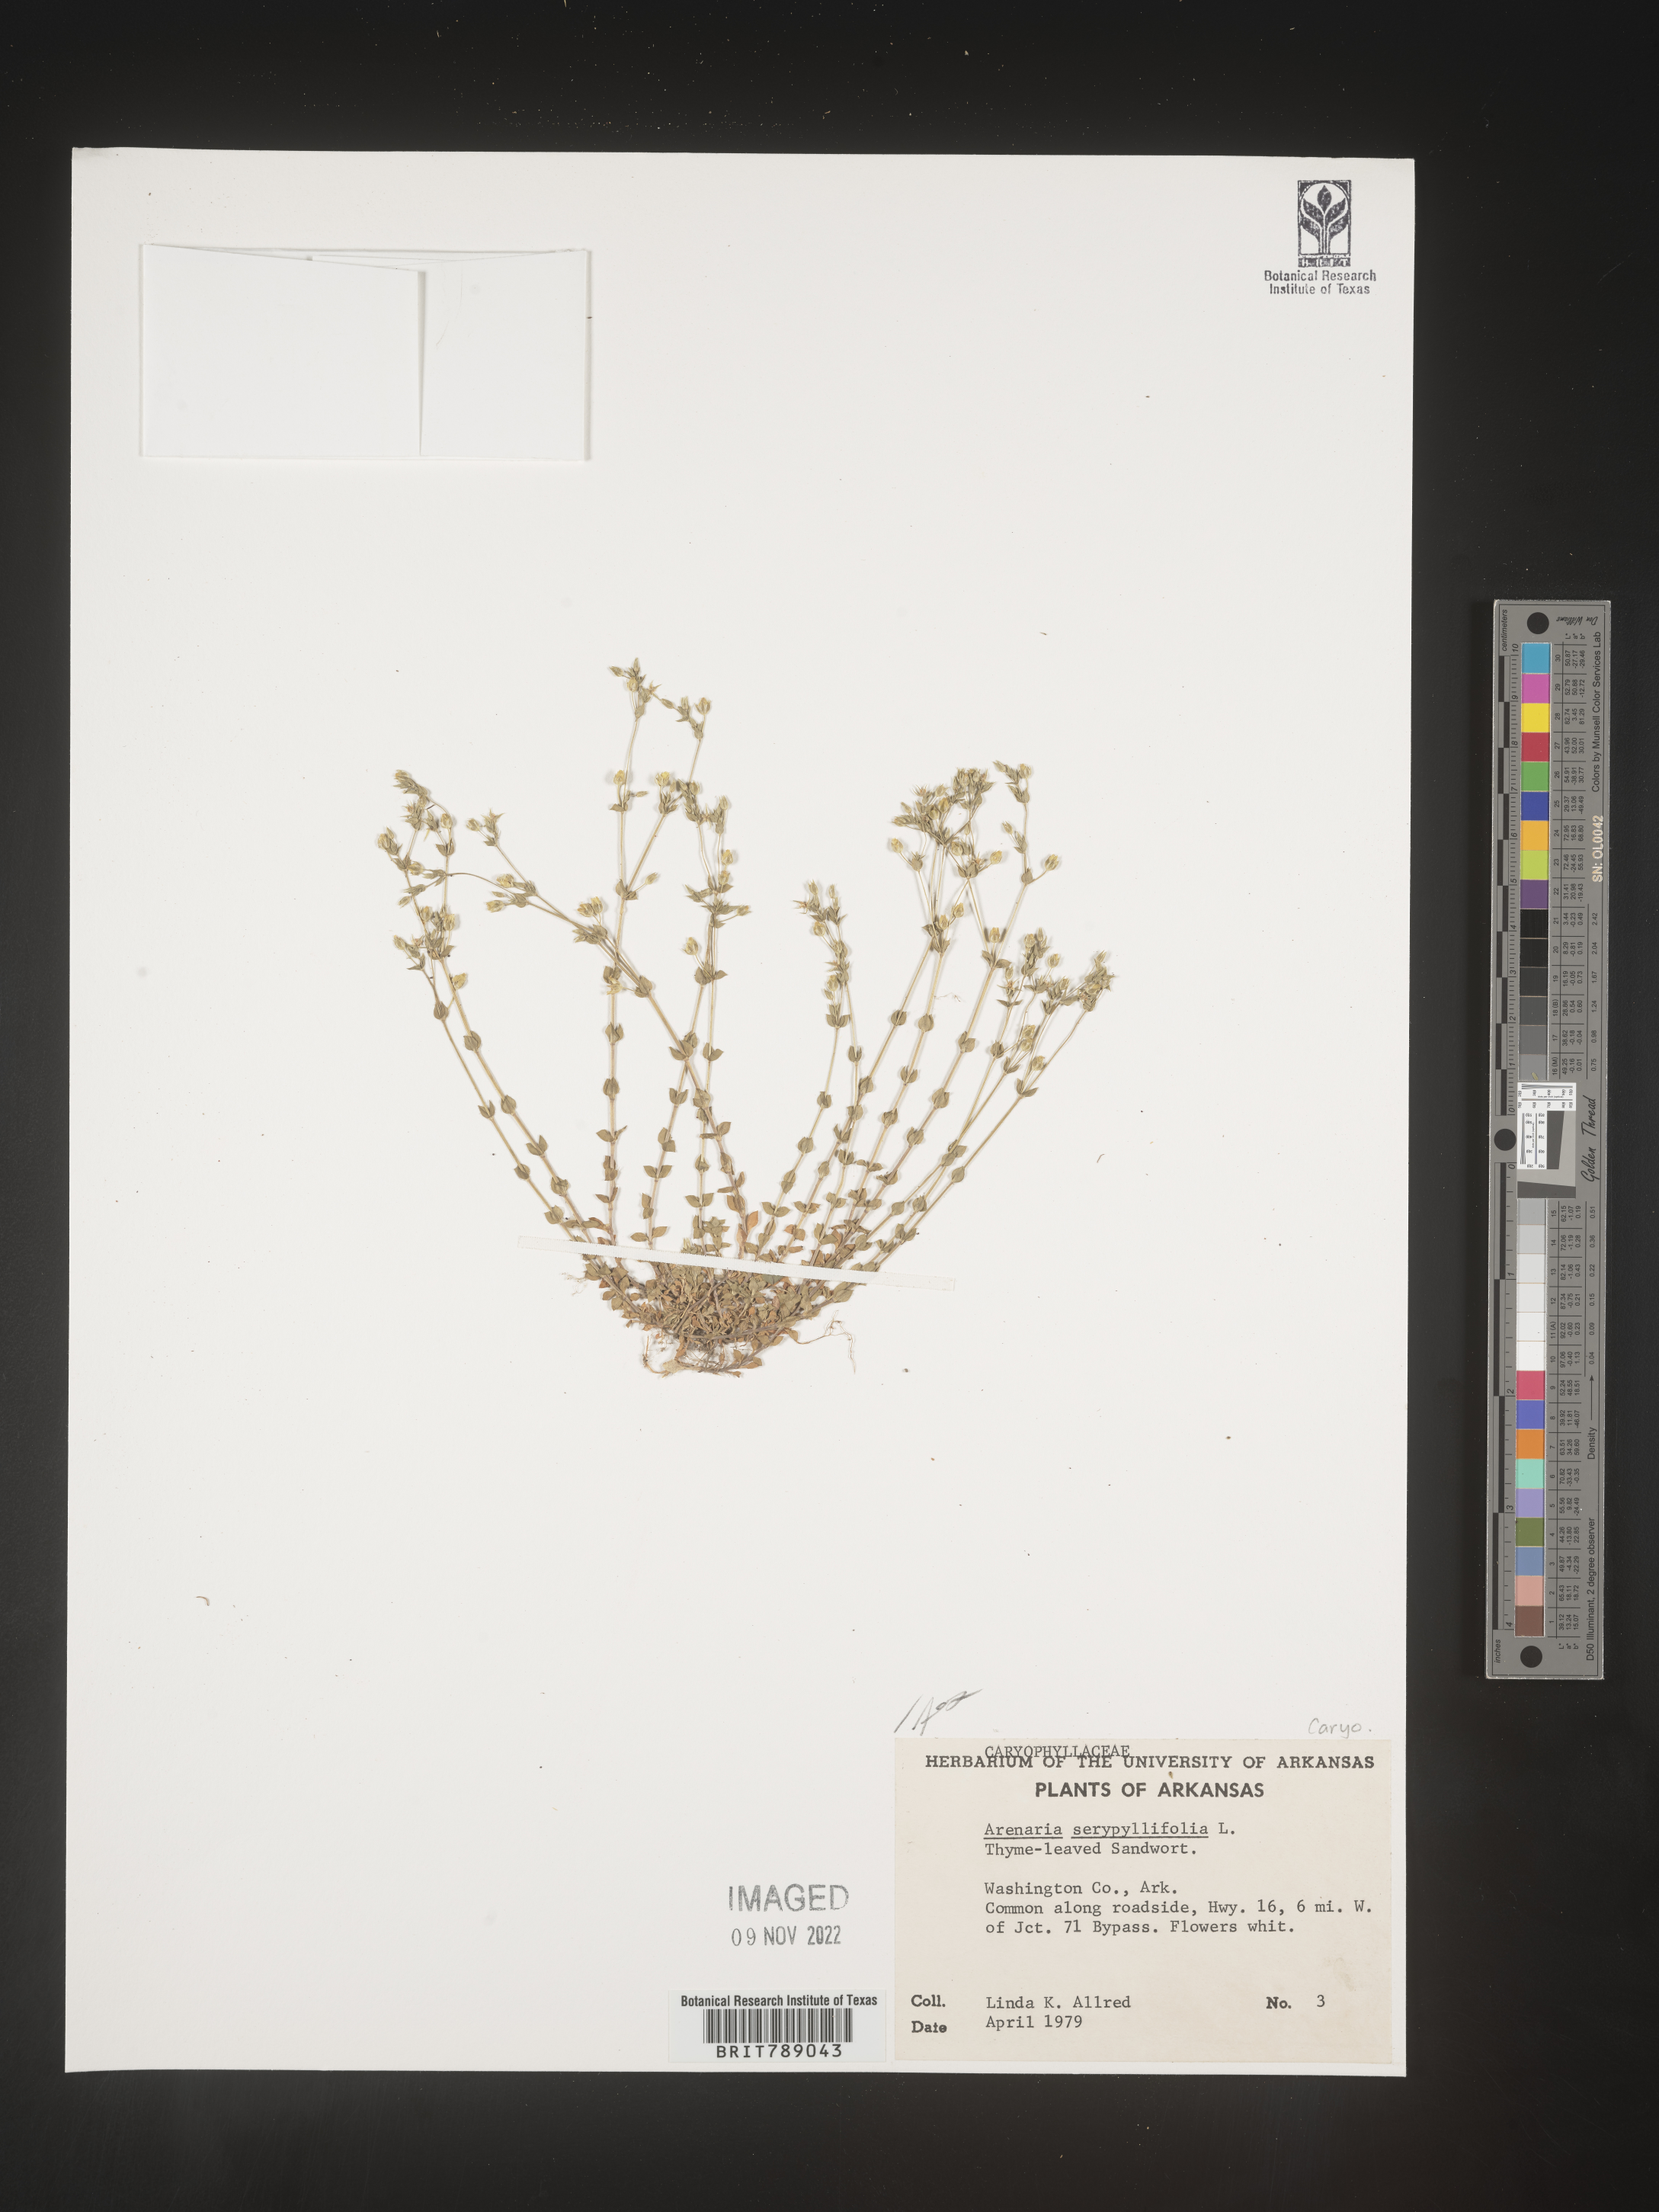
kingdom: Plantae
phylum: Tracheophyta
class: Magnoliopsida
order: Caryophyllales
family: Caryophyllaceae
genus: Arenaria
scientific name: Arenaria serpyllifolia
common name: Thyme-leaved sandwort
